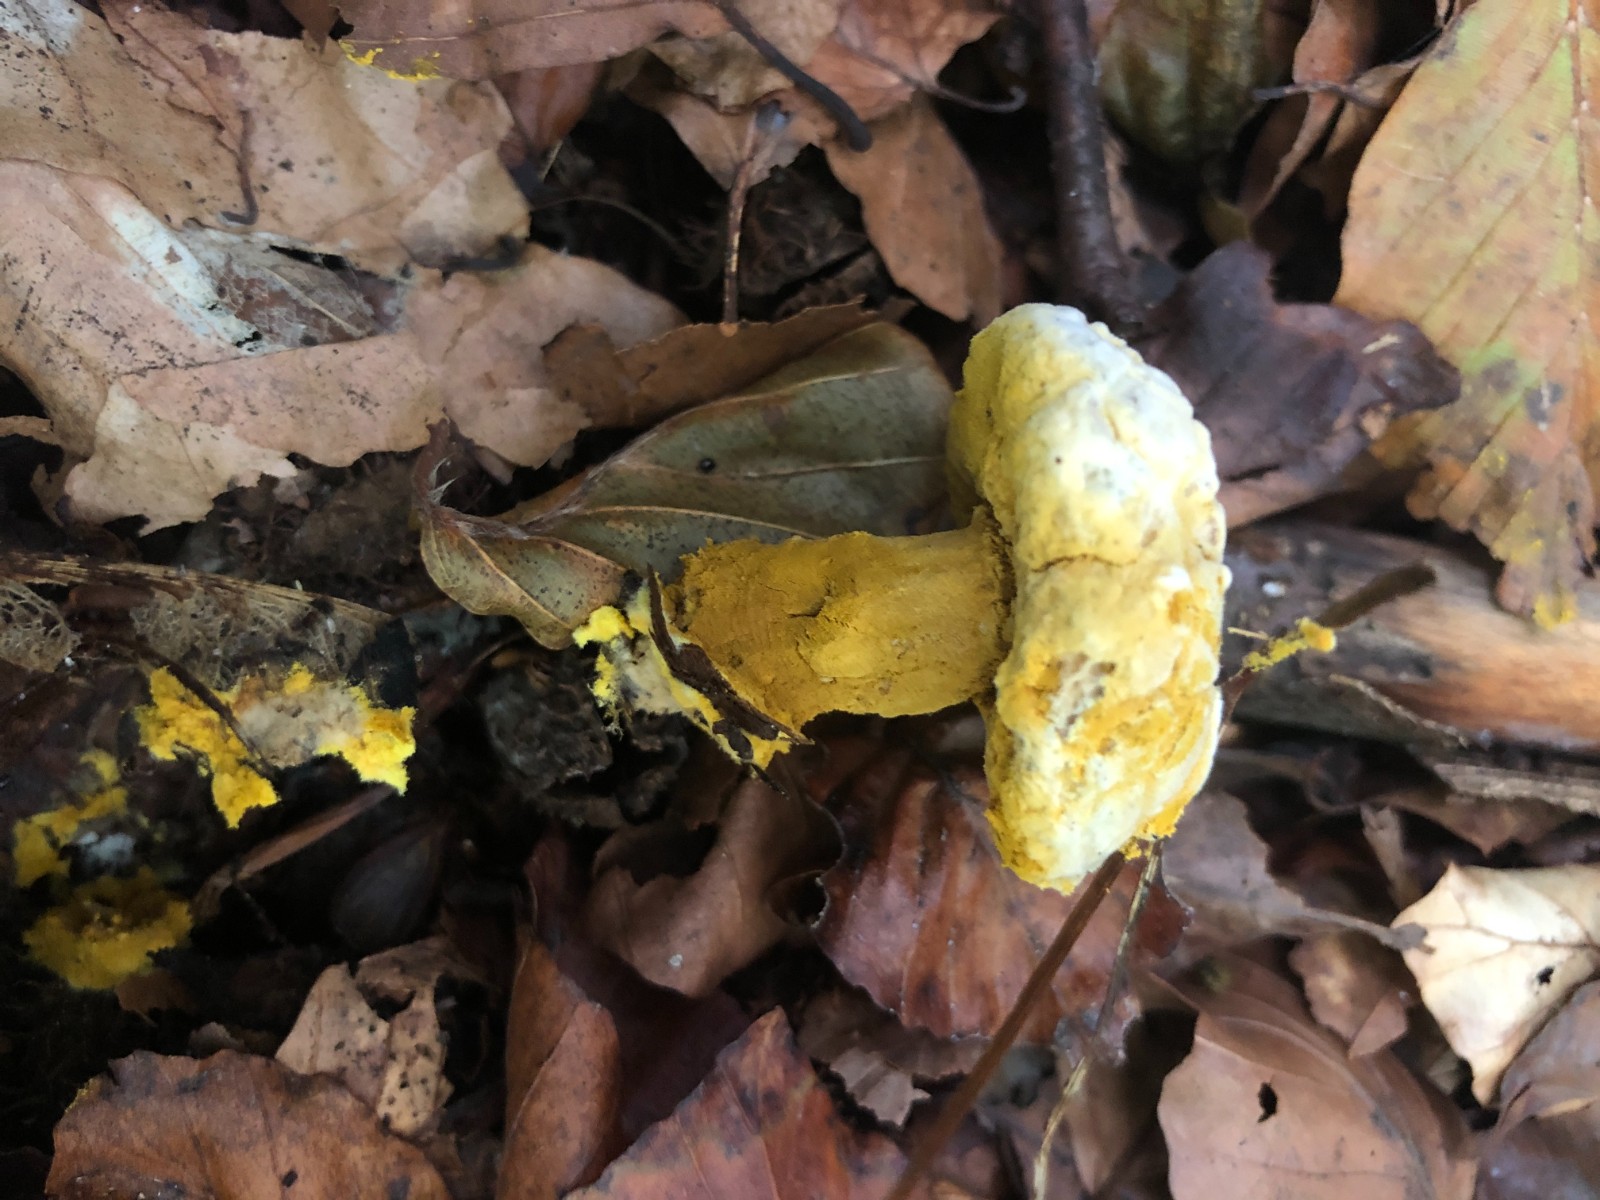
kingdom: Fungi
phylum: Ascomycota
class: Sordariomycetes
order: Hypocreales
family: Hypocreaceae
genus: Hypomyces
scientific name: Hypomyces microspermus
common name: dværgrørhat-snylteskorpe
